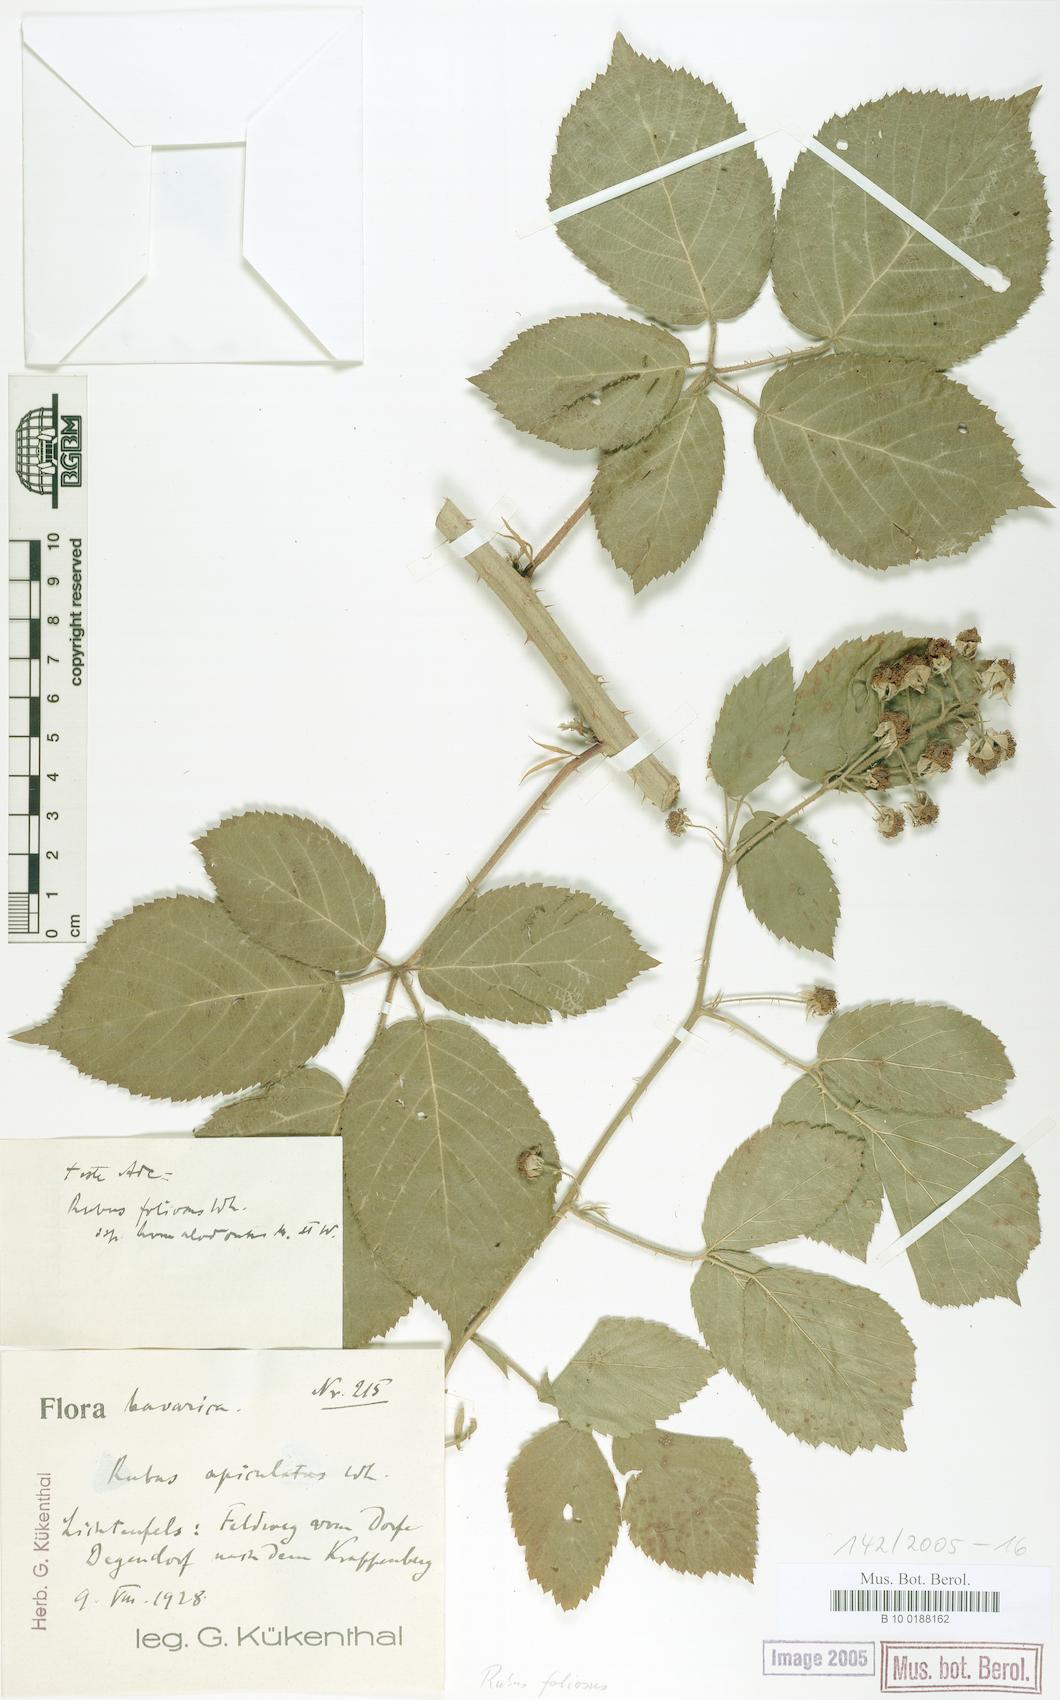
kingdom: Plantae
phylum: Tracheophyta
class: Magnoliopsida
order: Rosales
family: Rosaceae
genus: Rubus
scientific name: Rubus silvae-thuringiae
